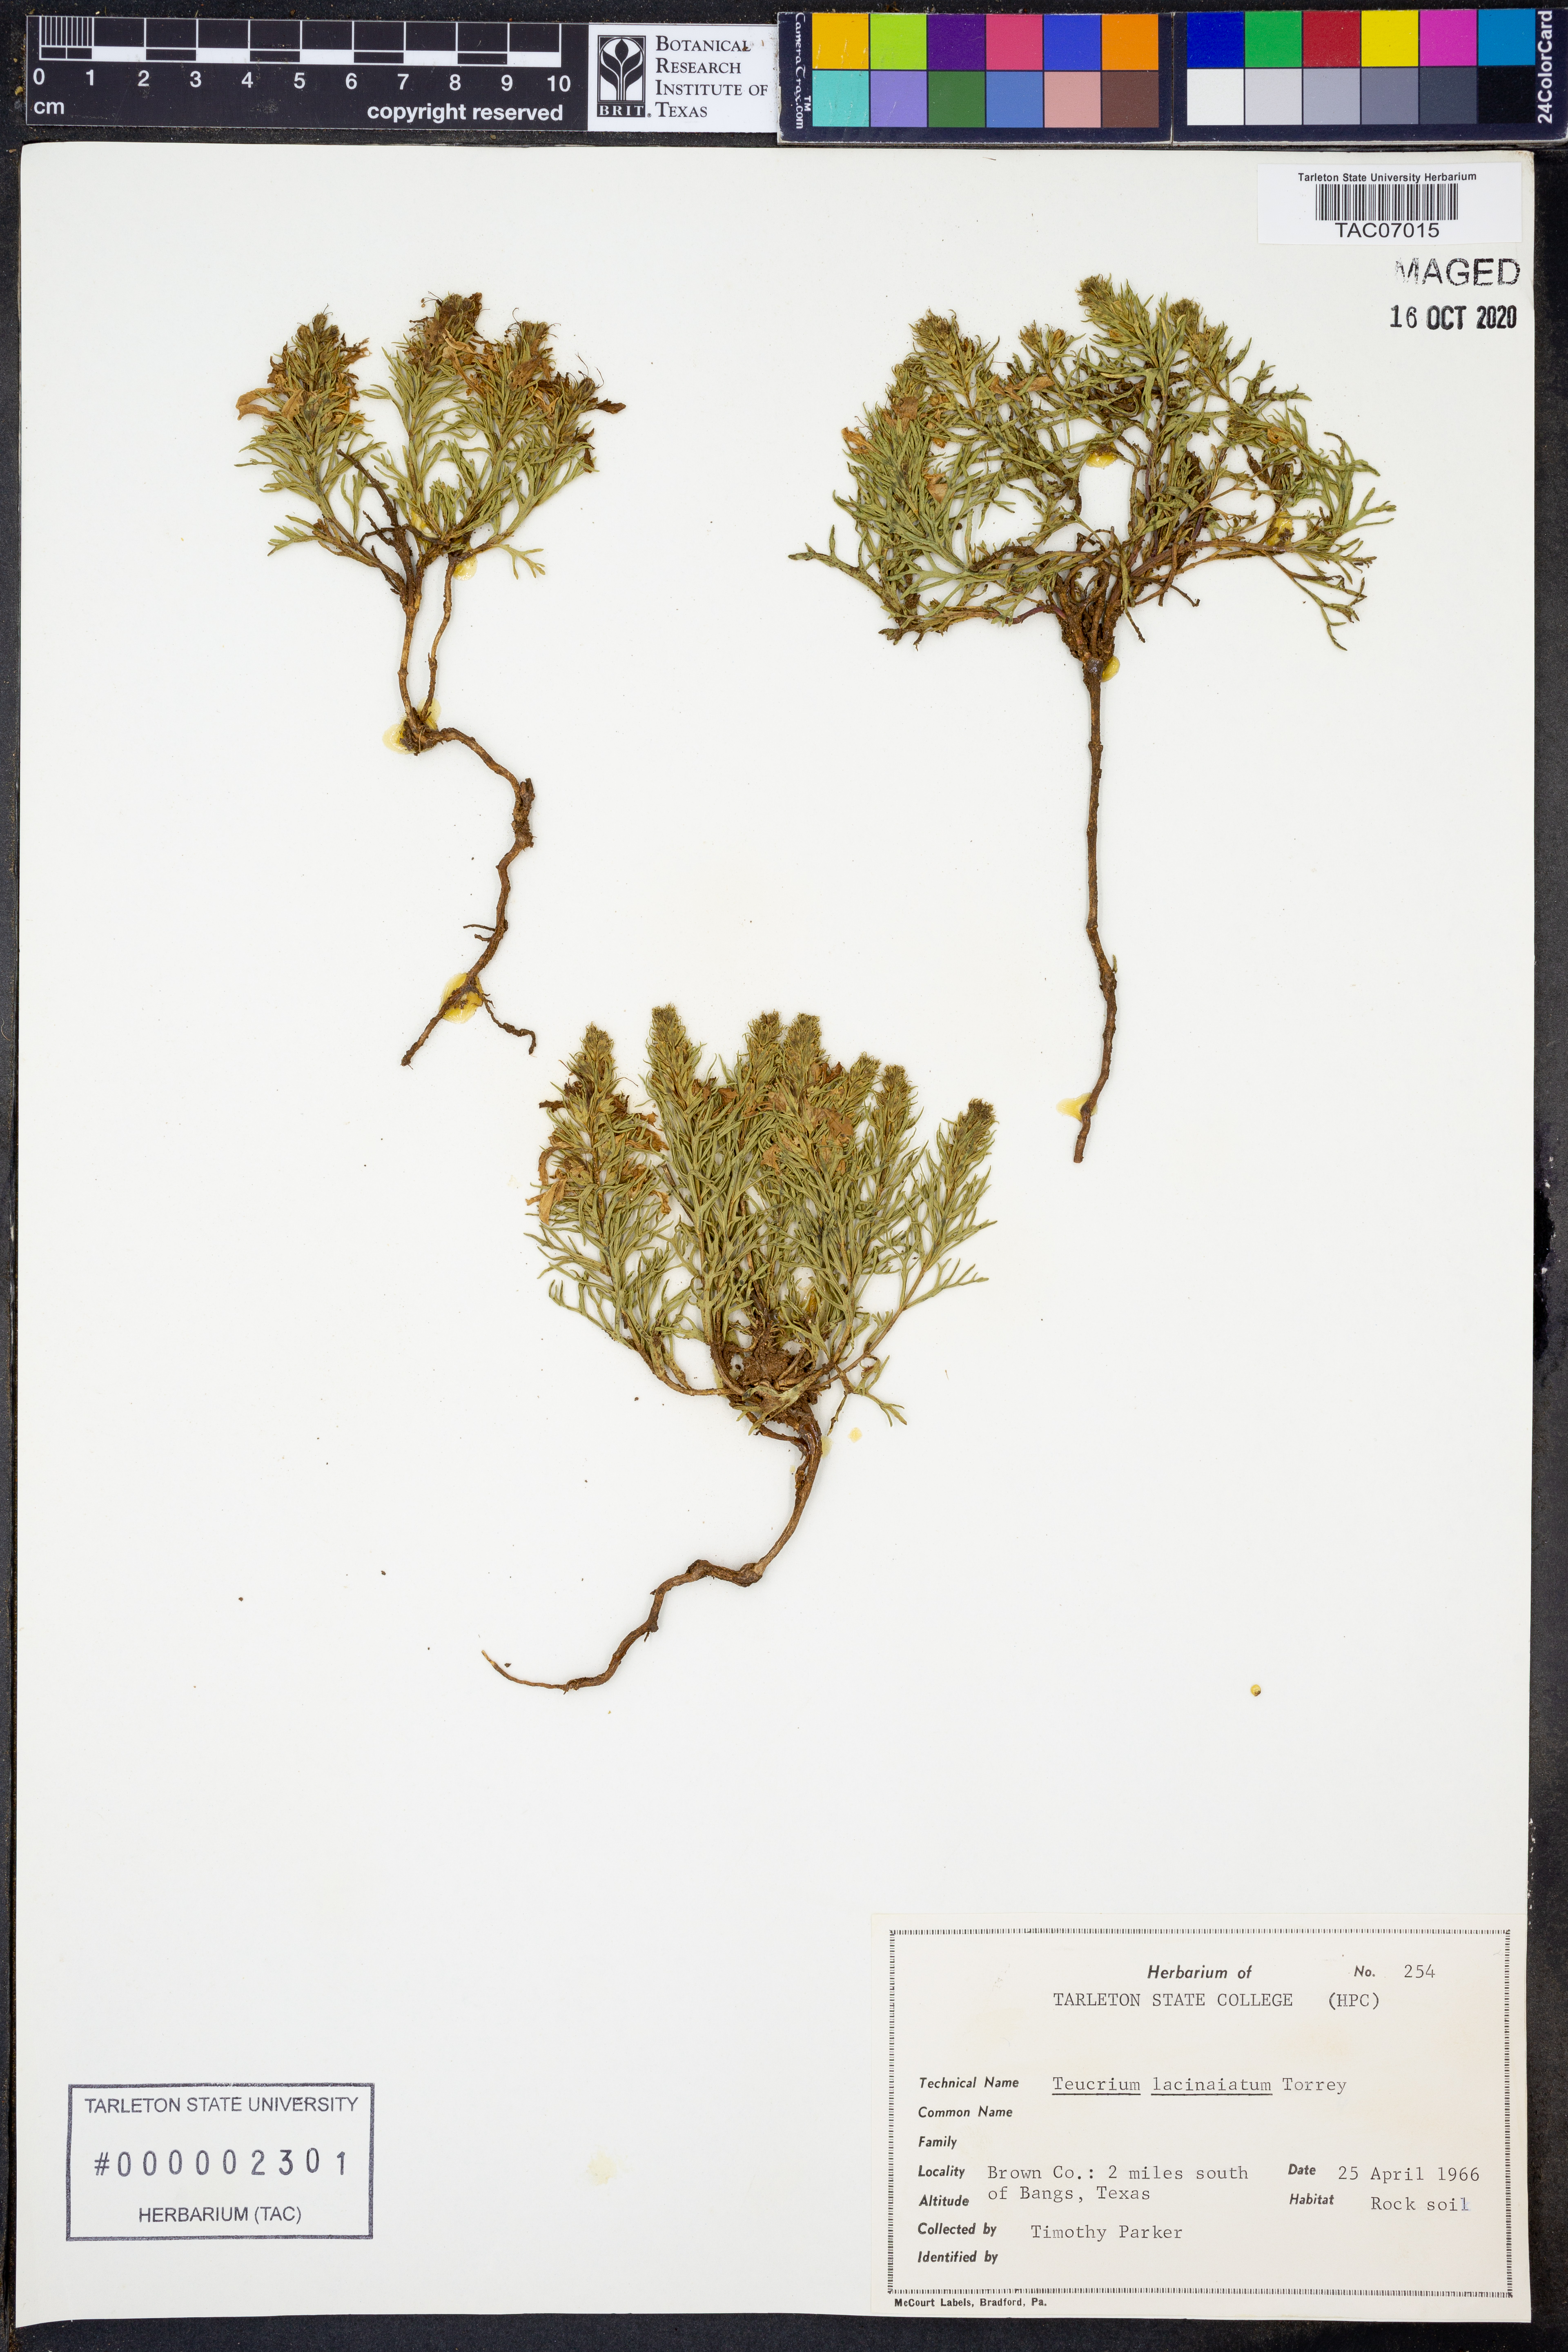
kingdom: Plantae
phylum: Tracheophyta
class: Magnoliopsida
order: Lamiales
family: Lamiaceae
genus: Teucrium
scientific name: Teucrium laciniatum
